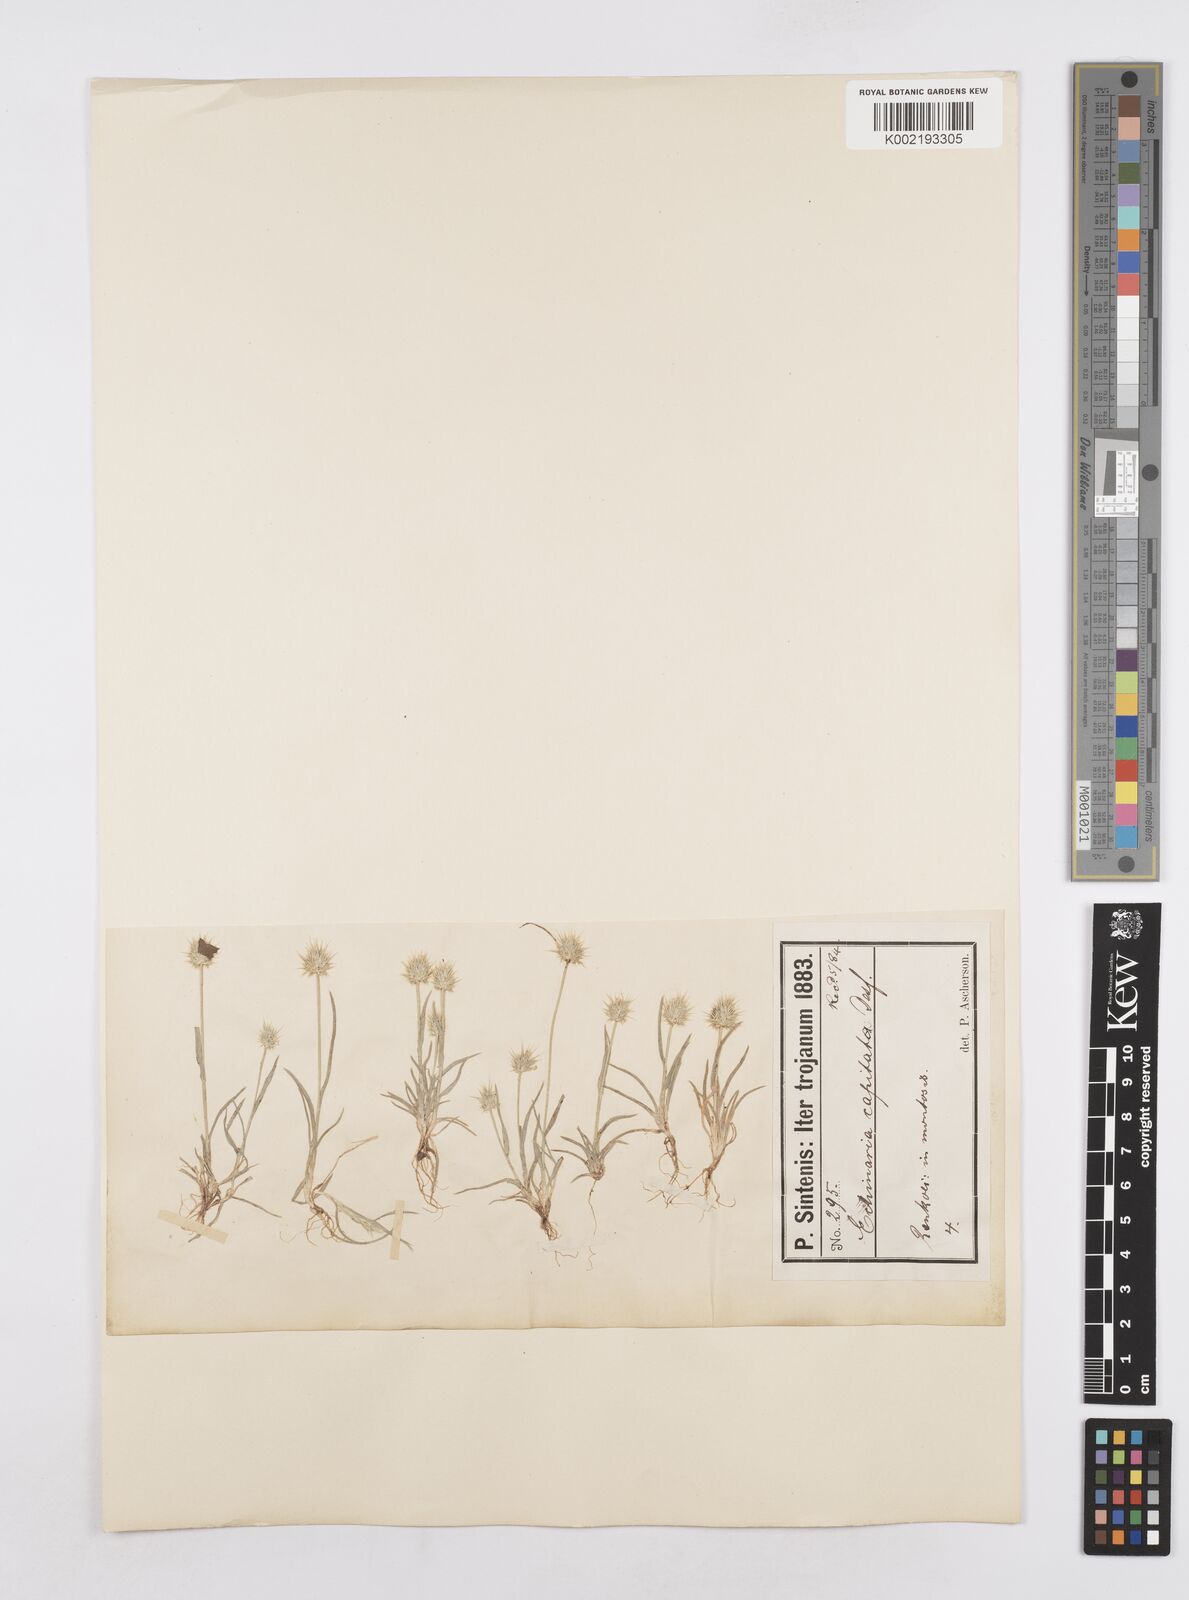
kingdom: Plantae
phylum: Tracheophyta
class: Liliopsida
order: Poales
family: Poaceae
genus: Echinaria
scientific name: Echinaria capitata
